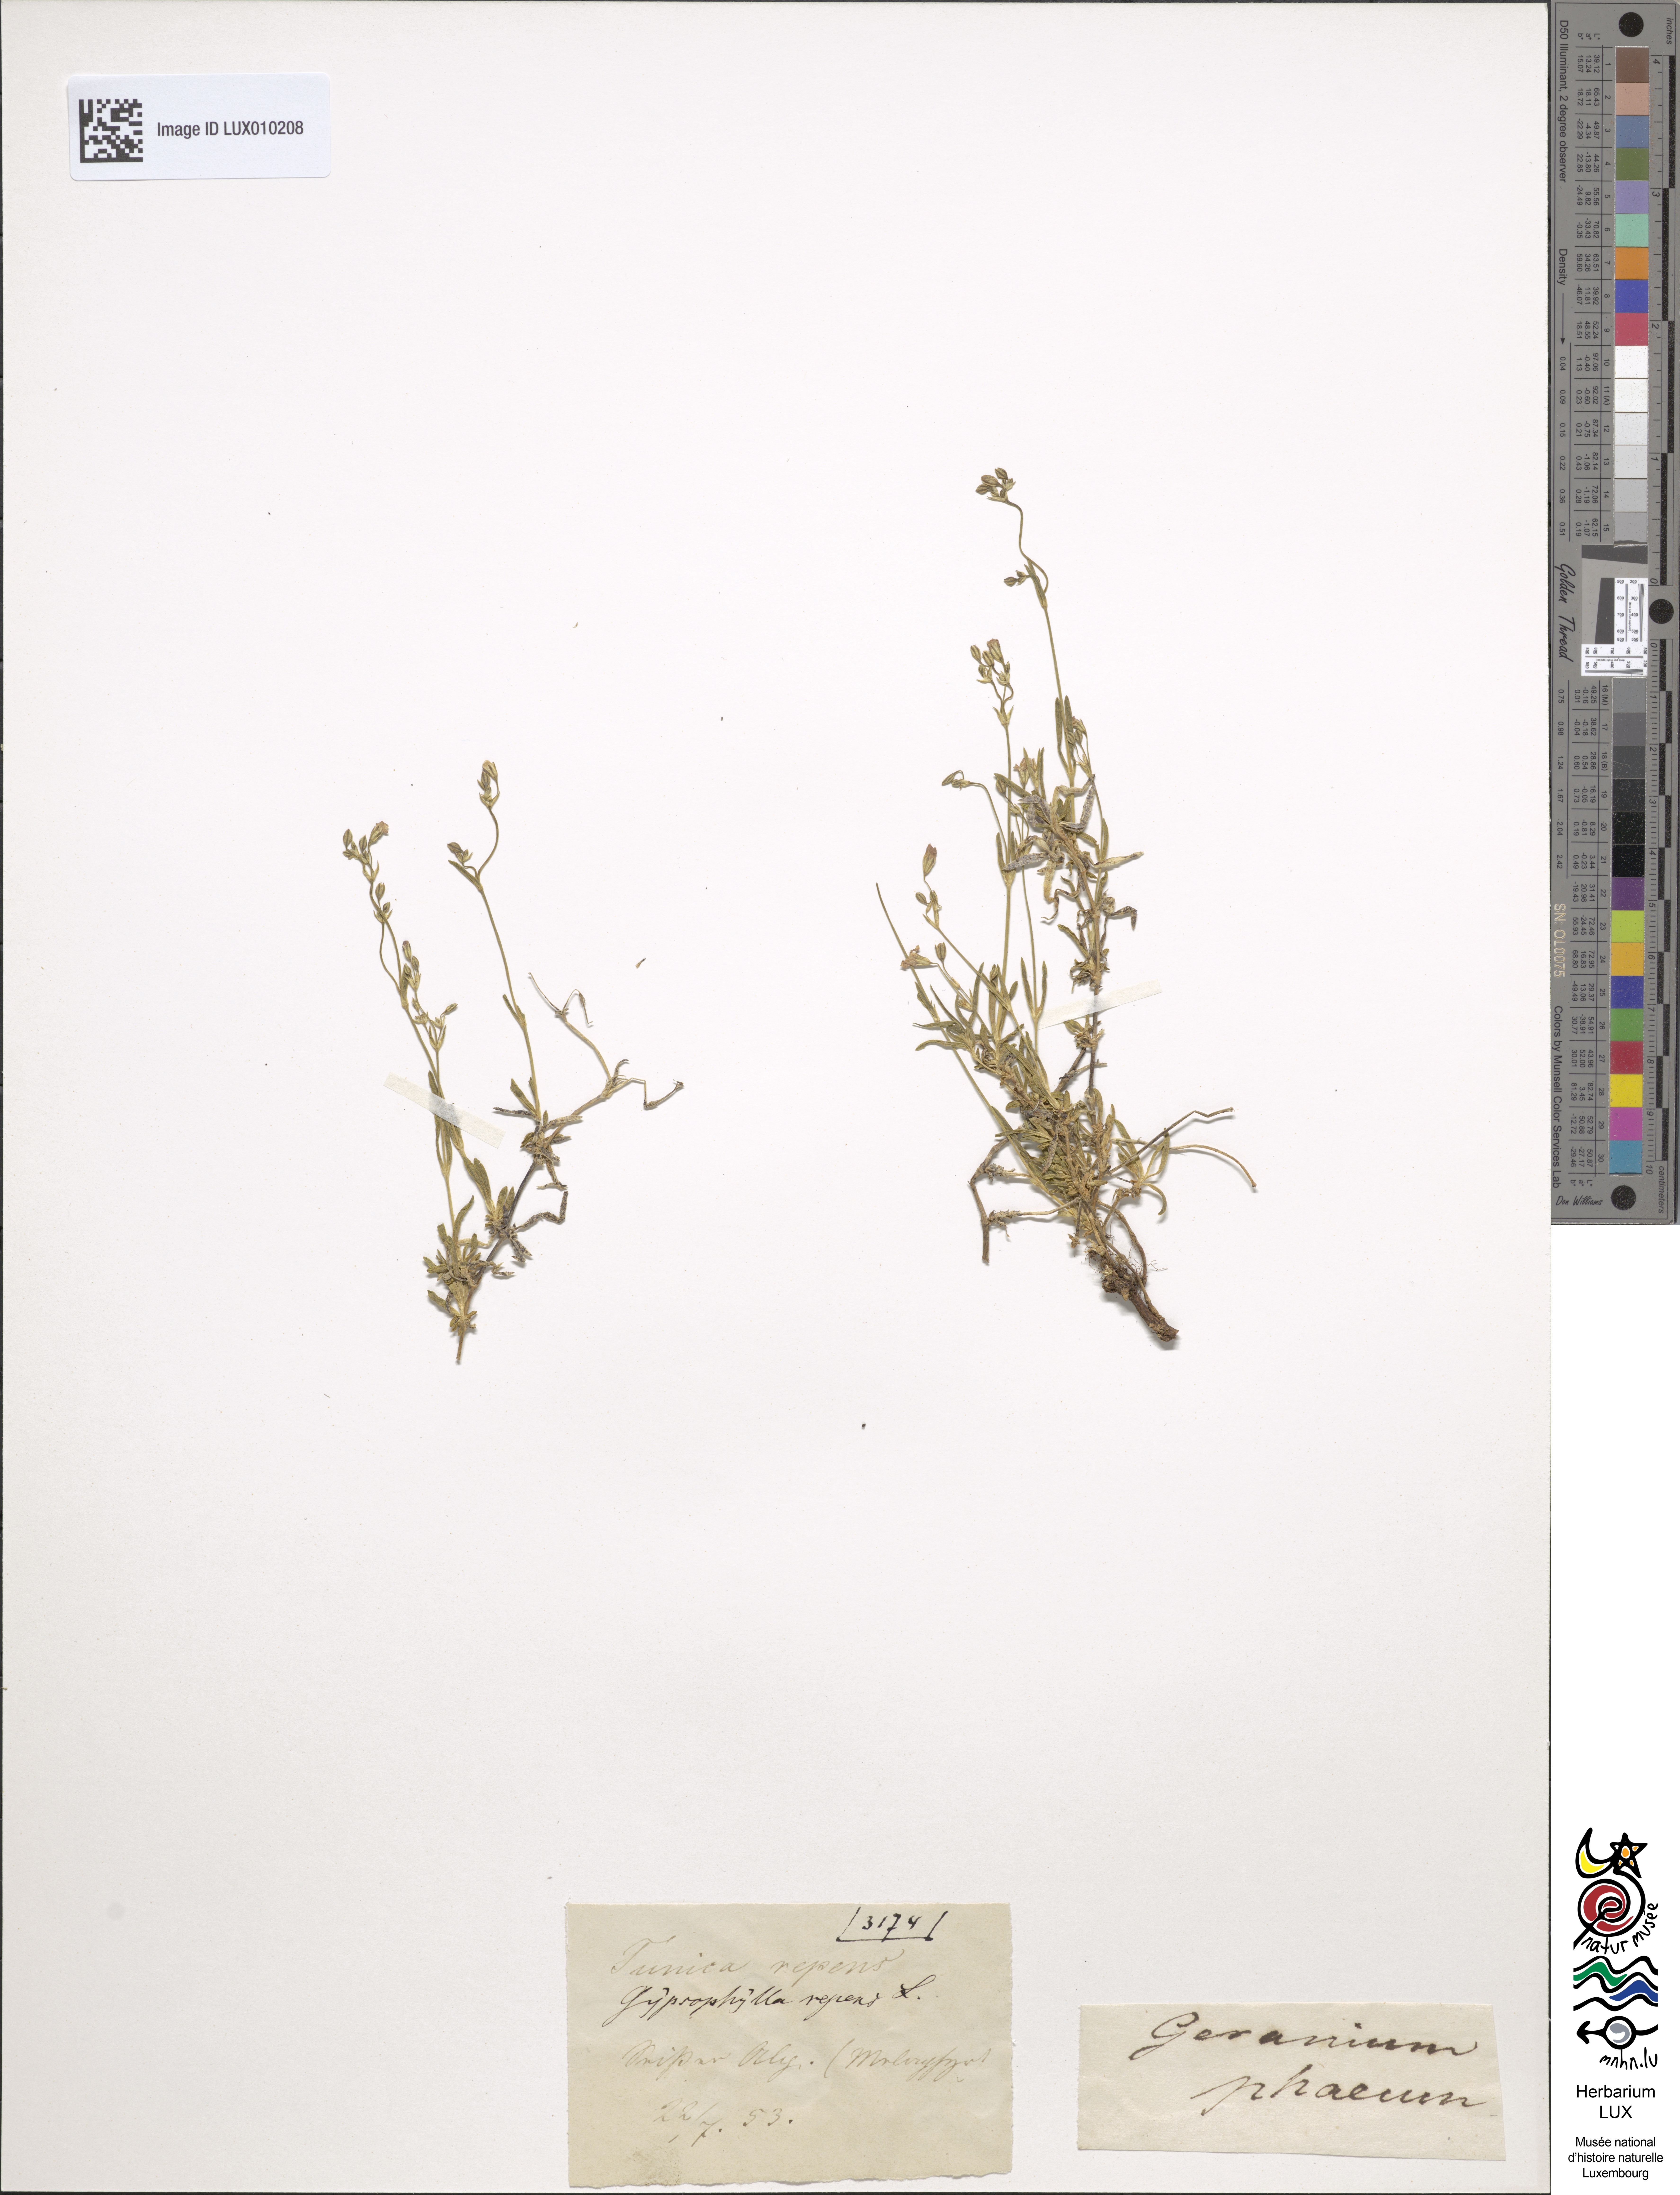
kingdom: Plantae
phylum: Tracheophyta
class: Magnoliopsida
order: Caryophyllales
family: Caryophyllaceae
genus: Gypsophila
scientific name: Gypsophila repens
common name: Creeping baby's-breath
